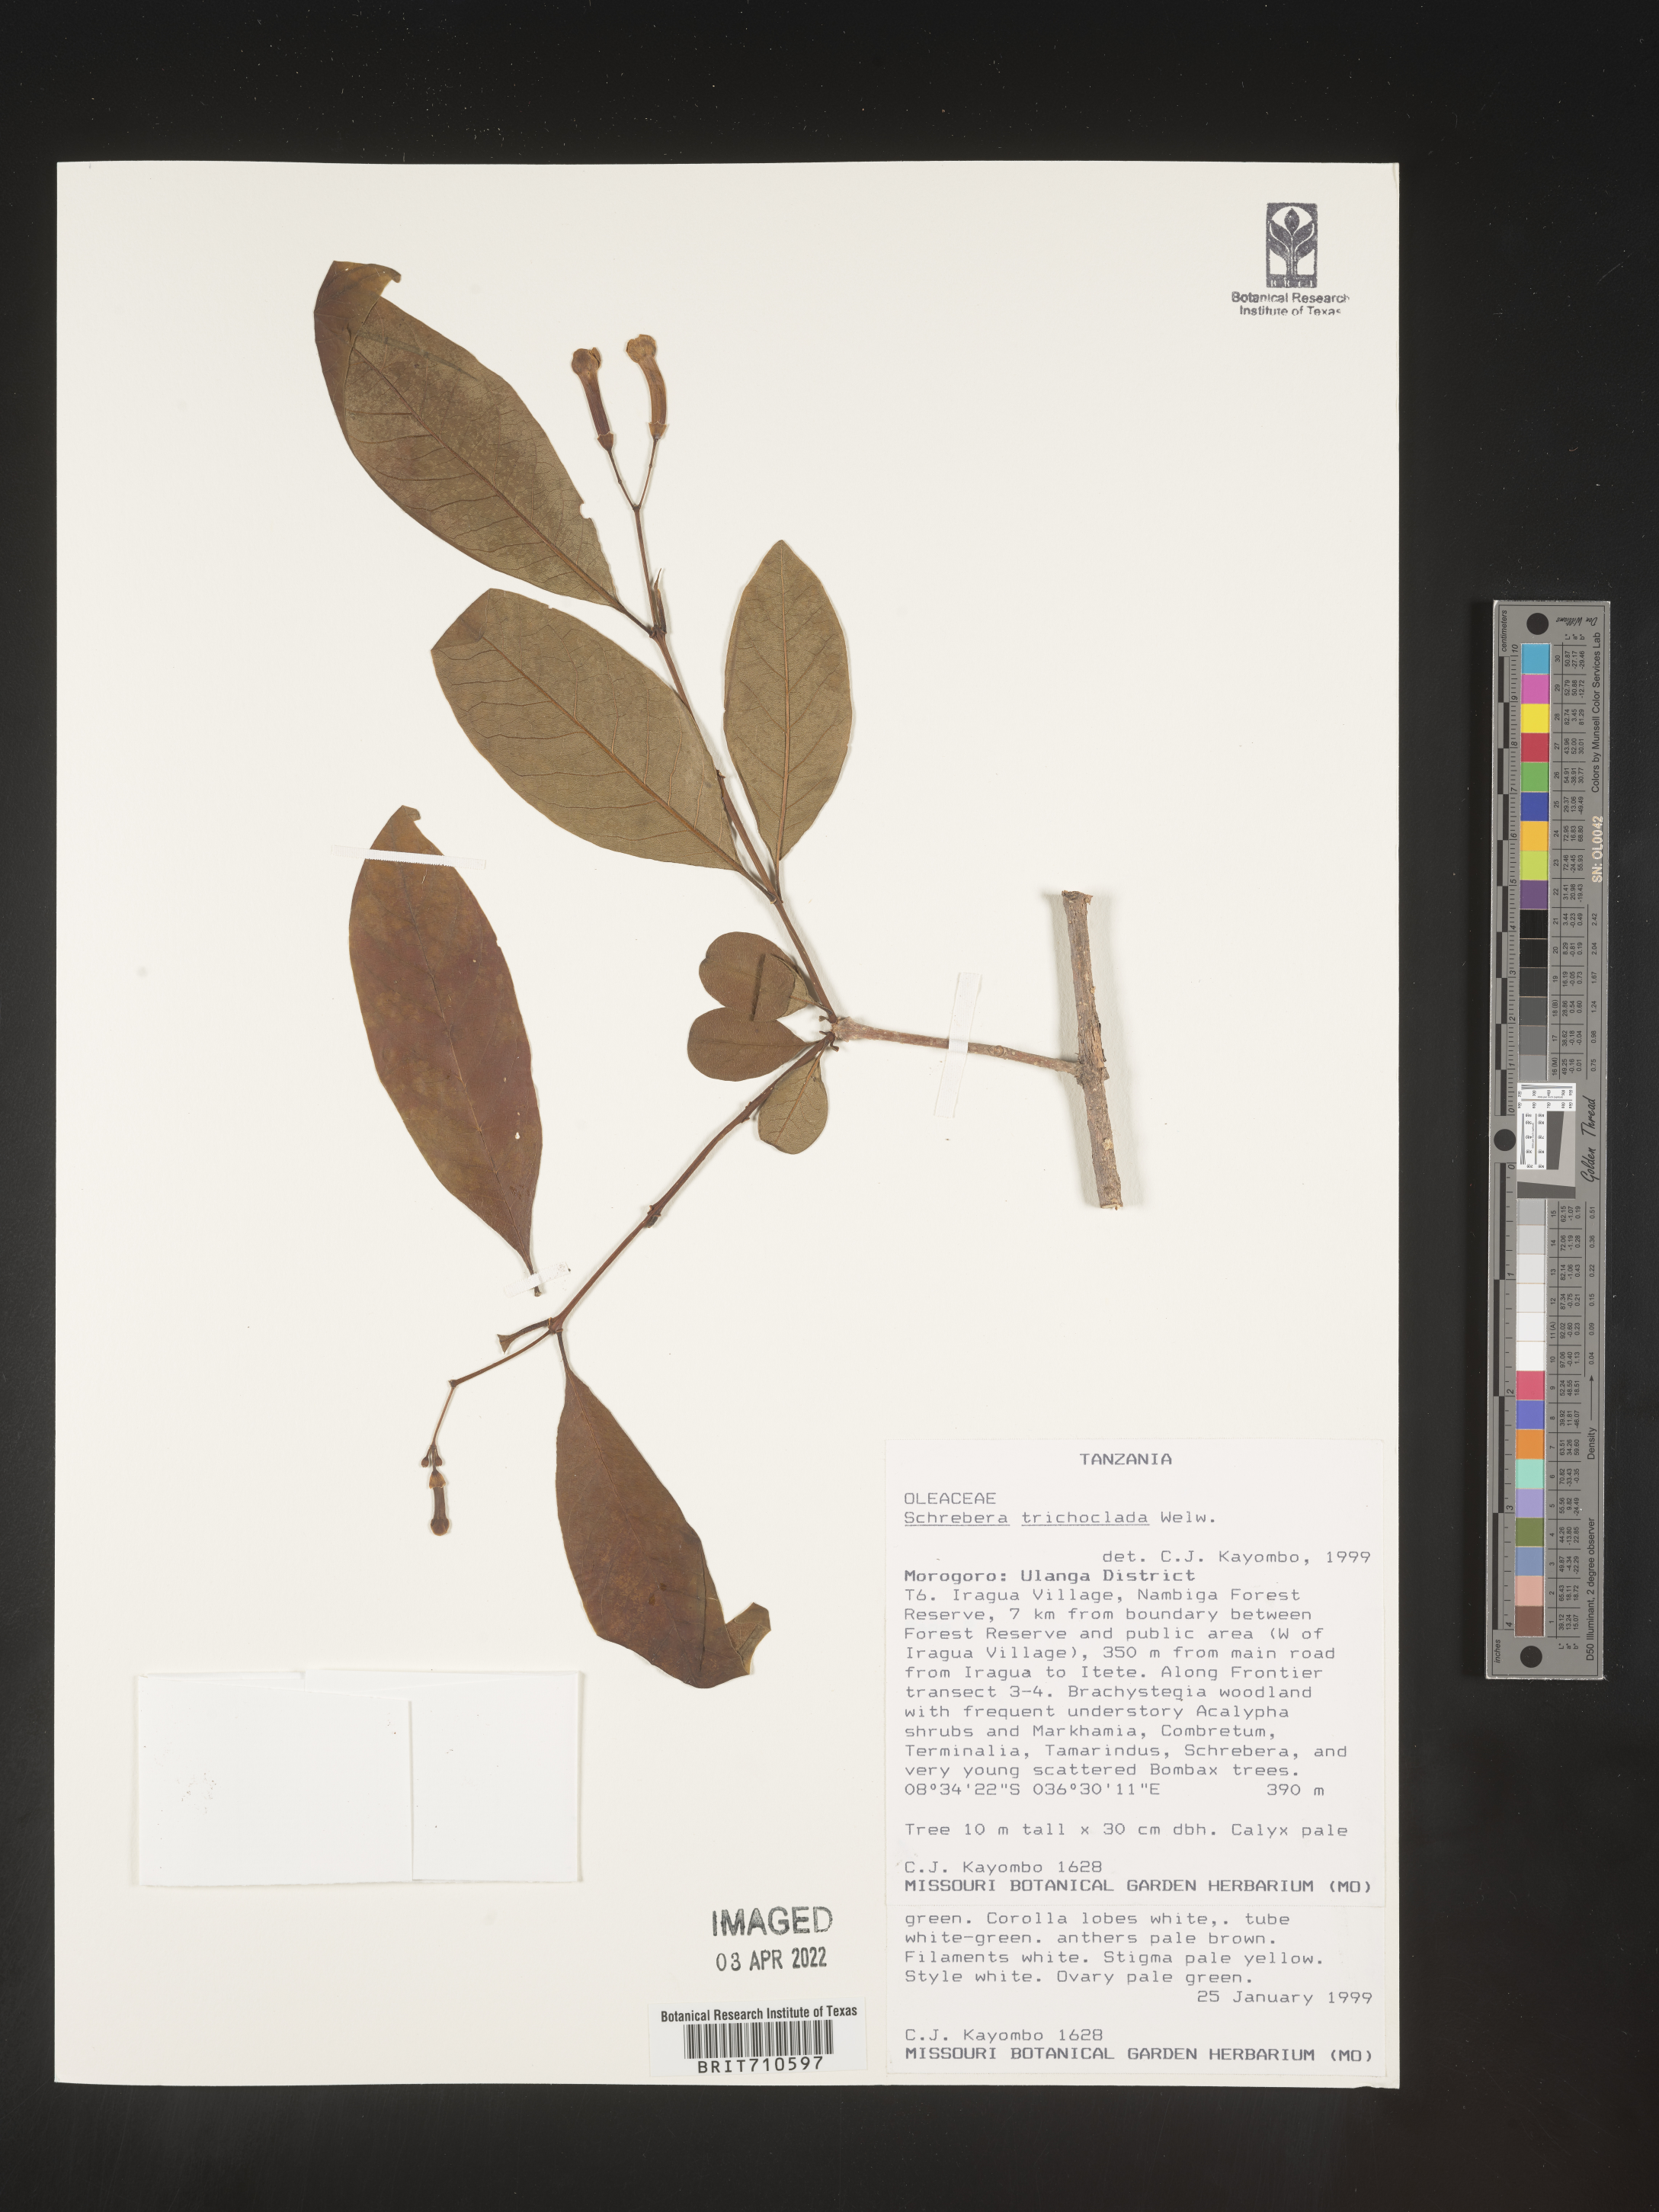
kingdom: Plantae
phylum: Tracheophyta
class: Magnoliopsida
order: Lamiales
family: Oleaceae
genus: Schrebera
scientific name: Schrebera trichoclada
